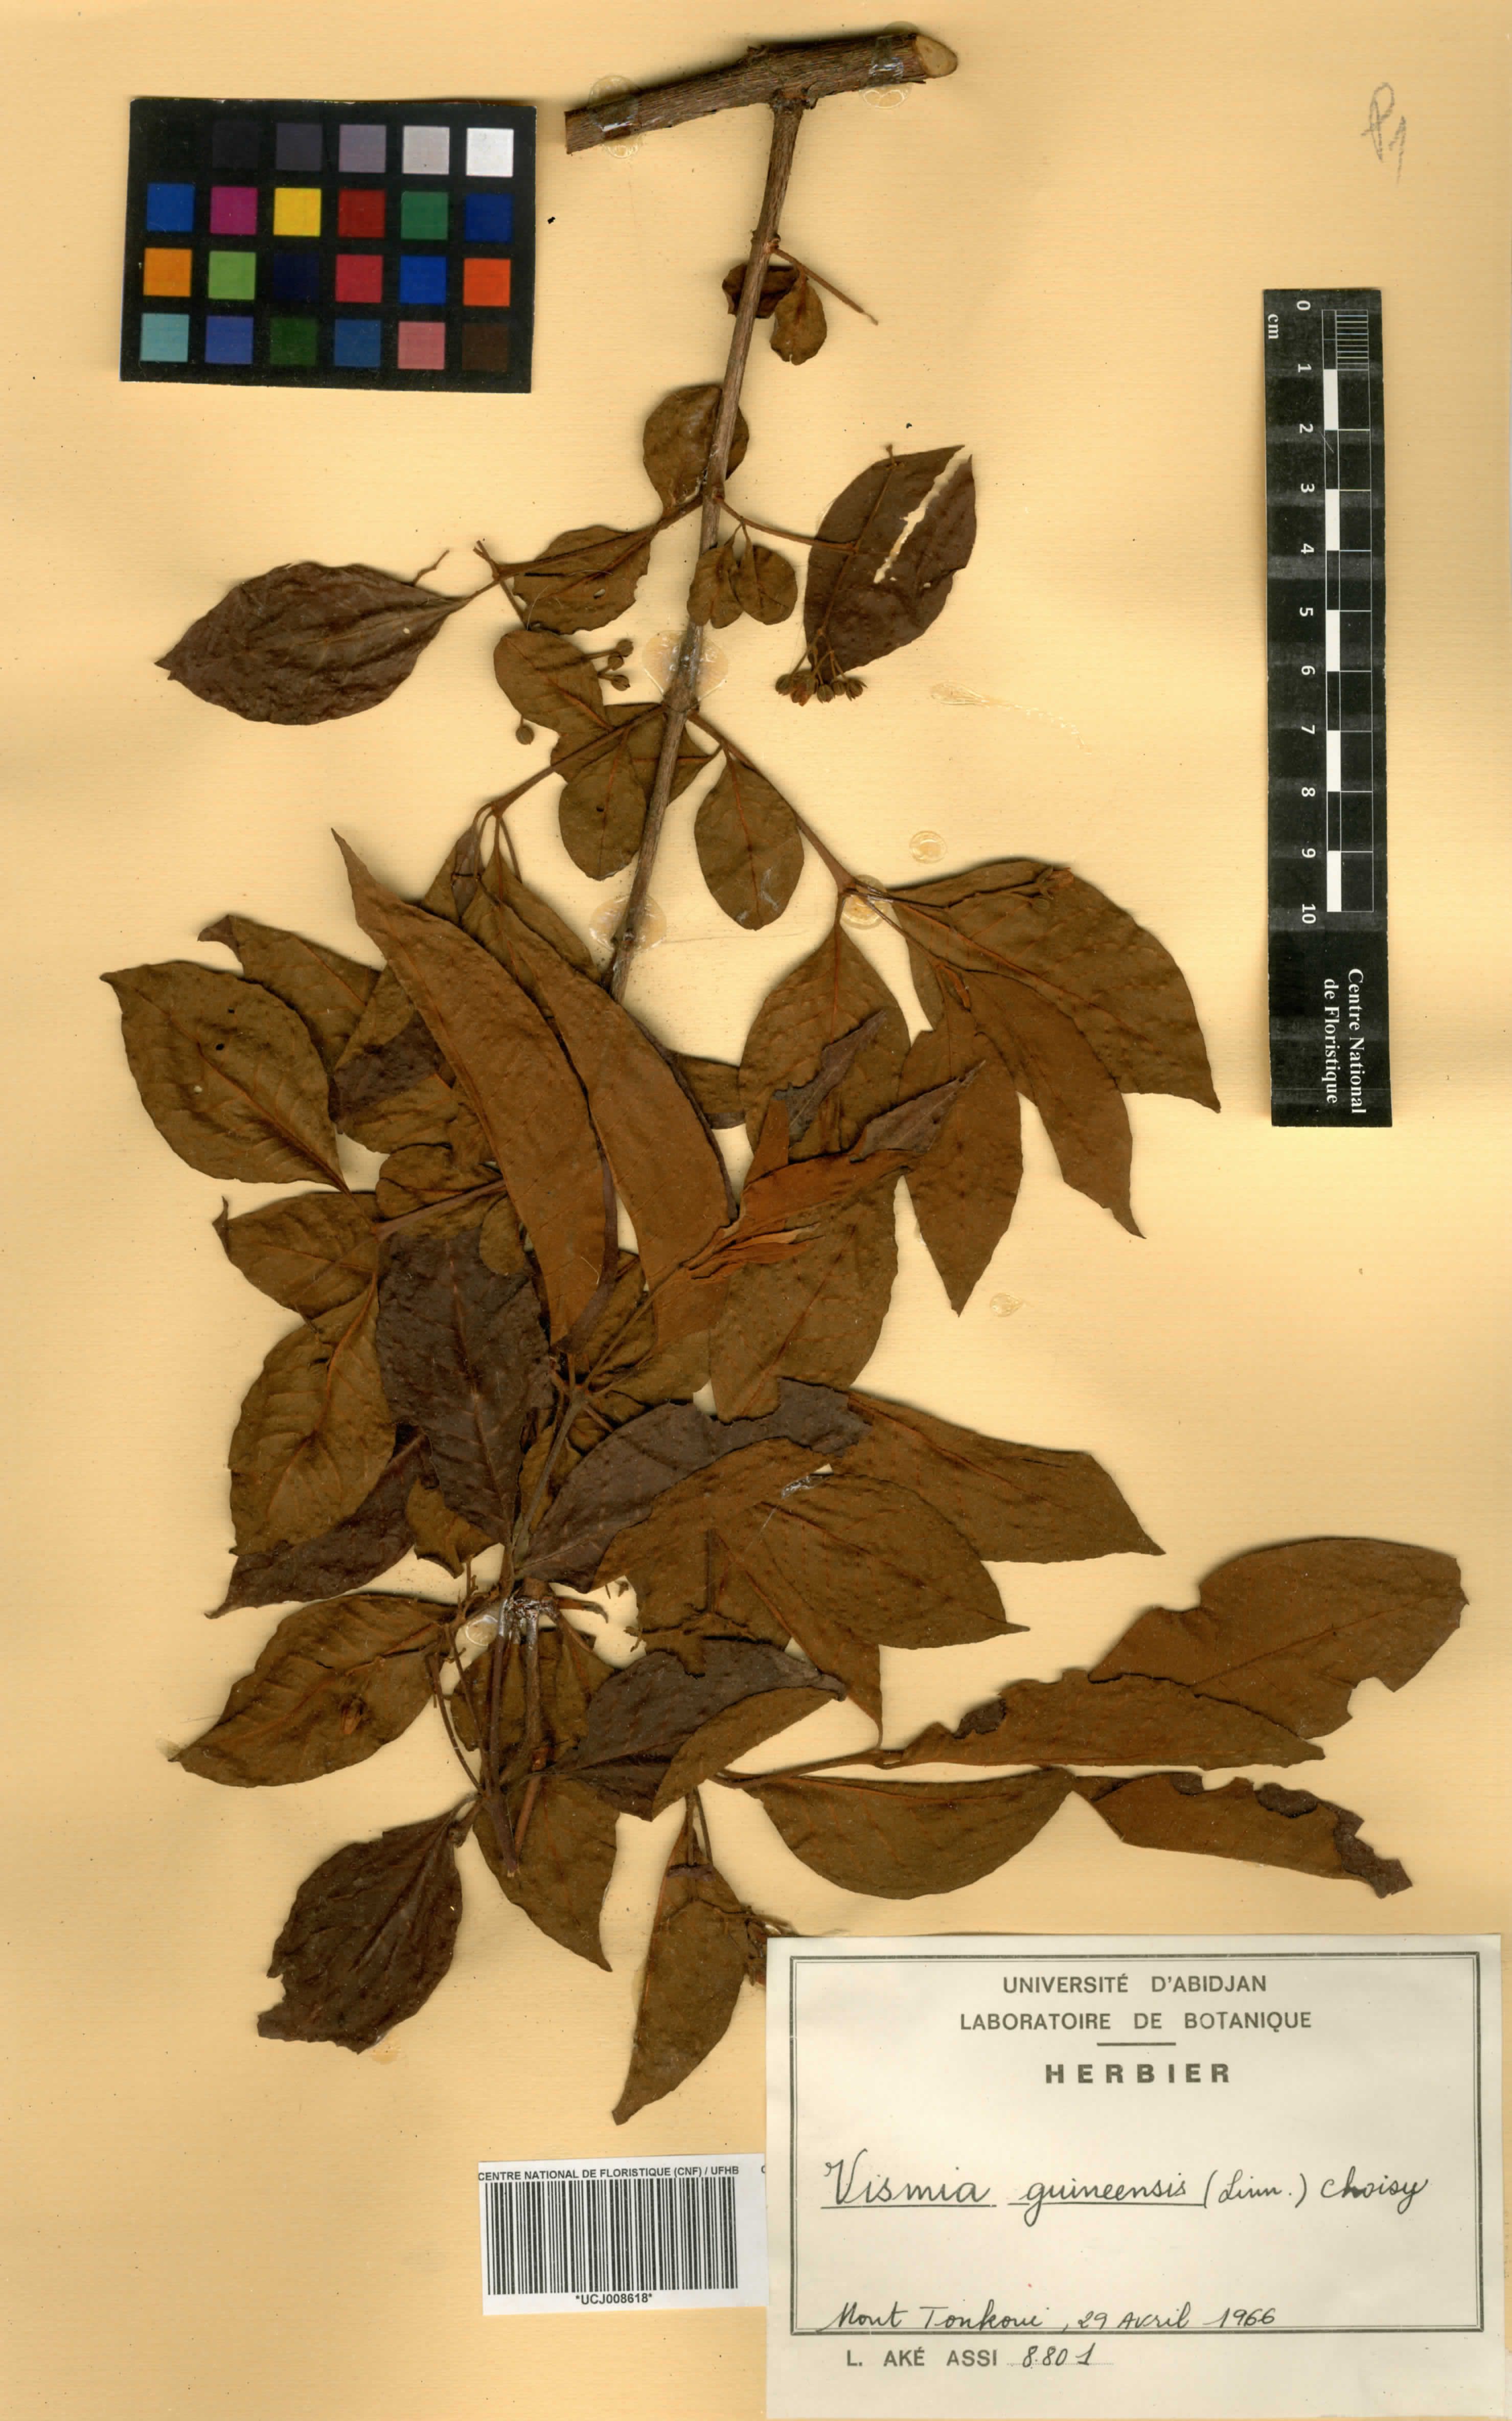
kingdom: Plantae
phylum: Tracheophyta
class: Magnoliopsida
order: Malpighiales
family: Hypericaceae
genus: Psorospermum
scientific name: Psorospermum guineense
